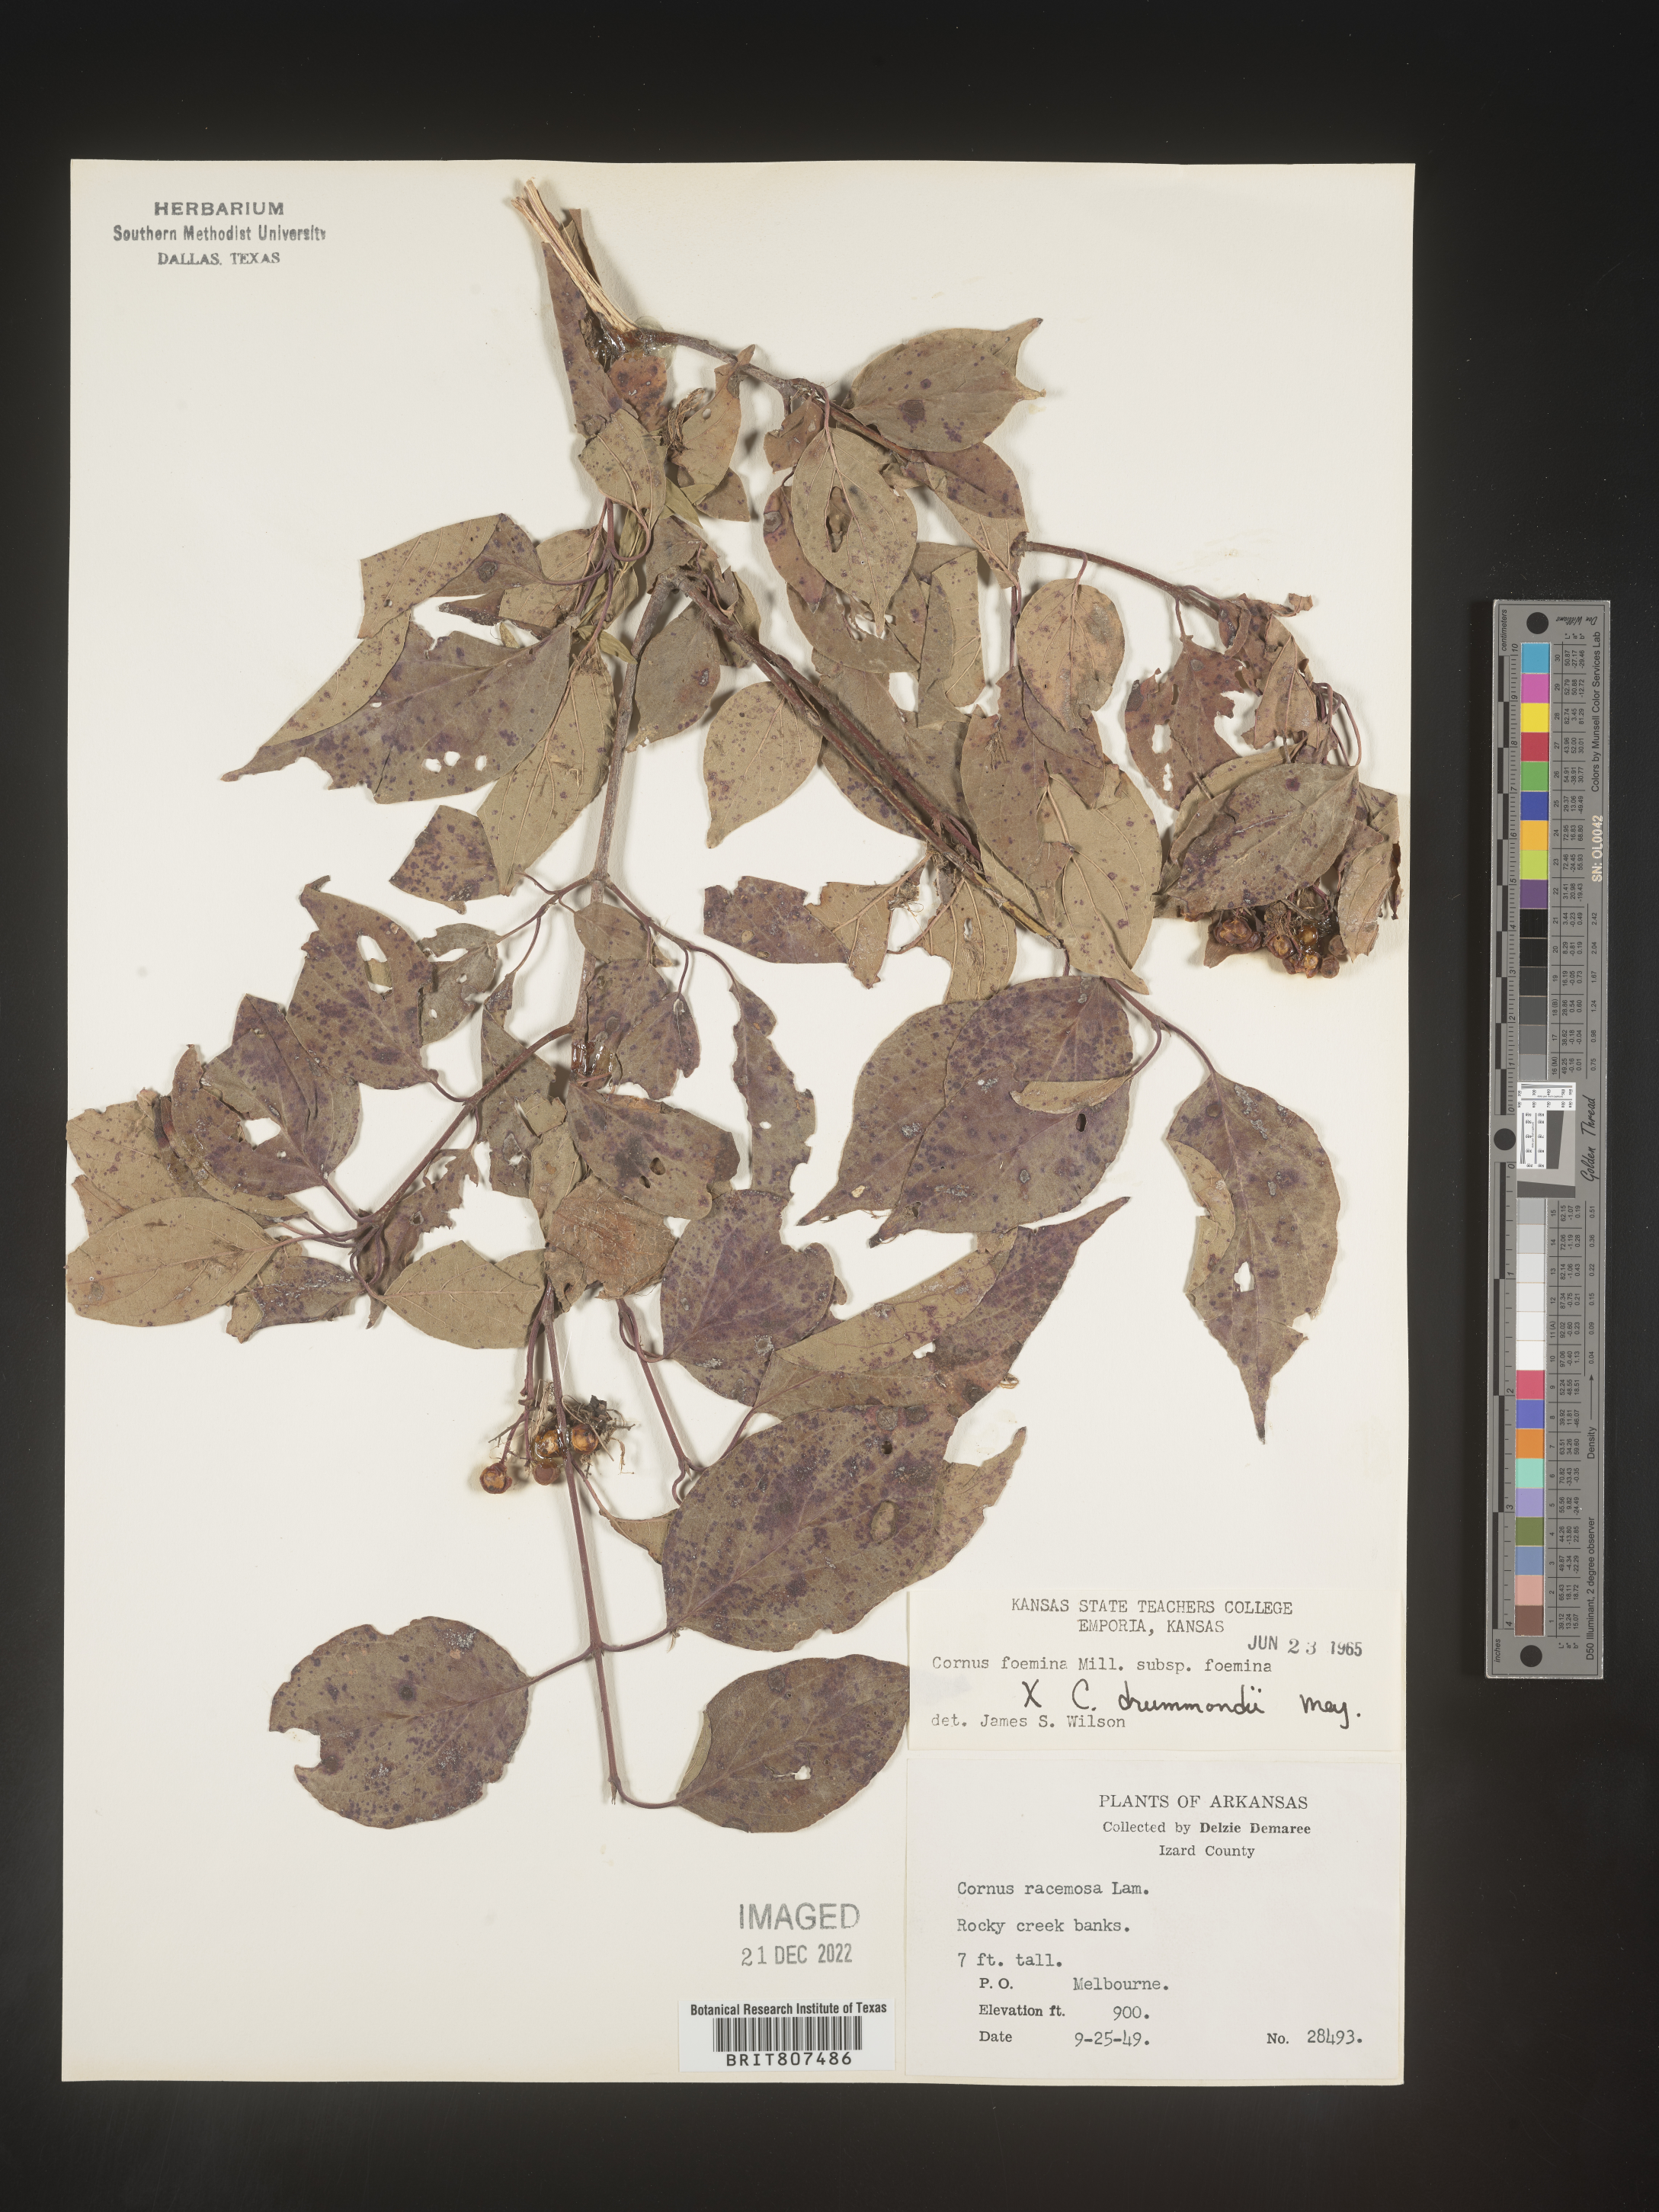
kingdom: Plantae
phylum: Tracheophyta
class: Magnoliopsida
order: Cornales
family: Cornaceae
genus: Cornus
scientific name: Cornus foemina
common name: Swamp dogwood
